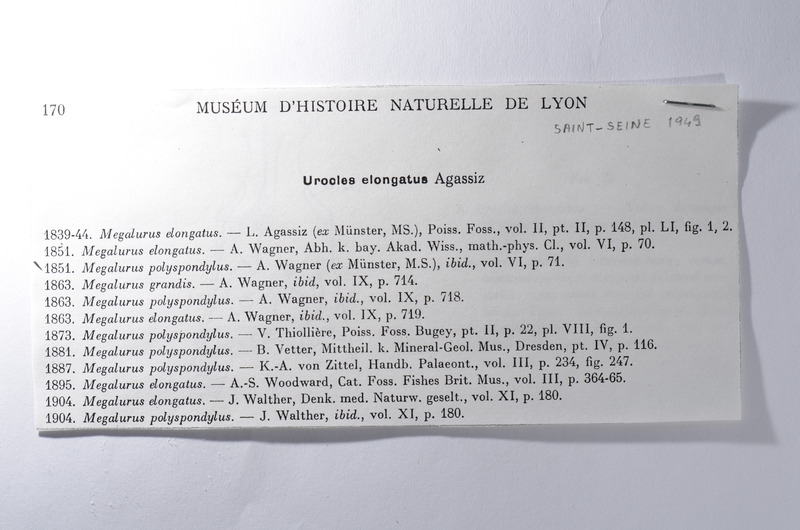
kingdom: Animalia
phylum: Chordata
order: Amiiformes
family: Amiidae
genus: Solnhofenamia
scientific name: Solnhofenamia elongata
